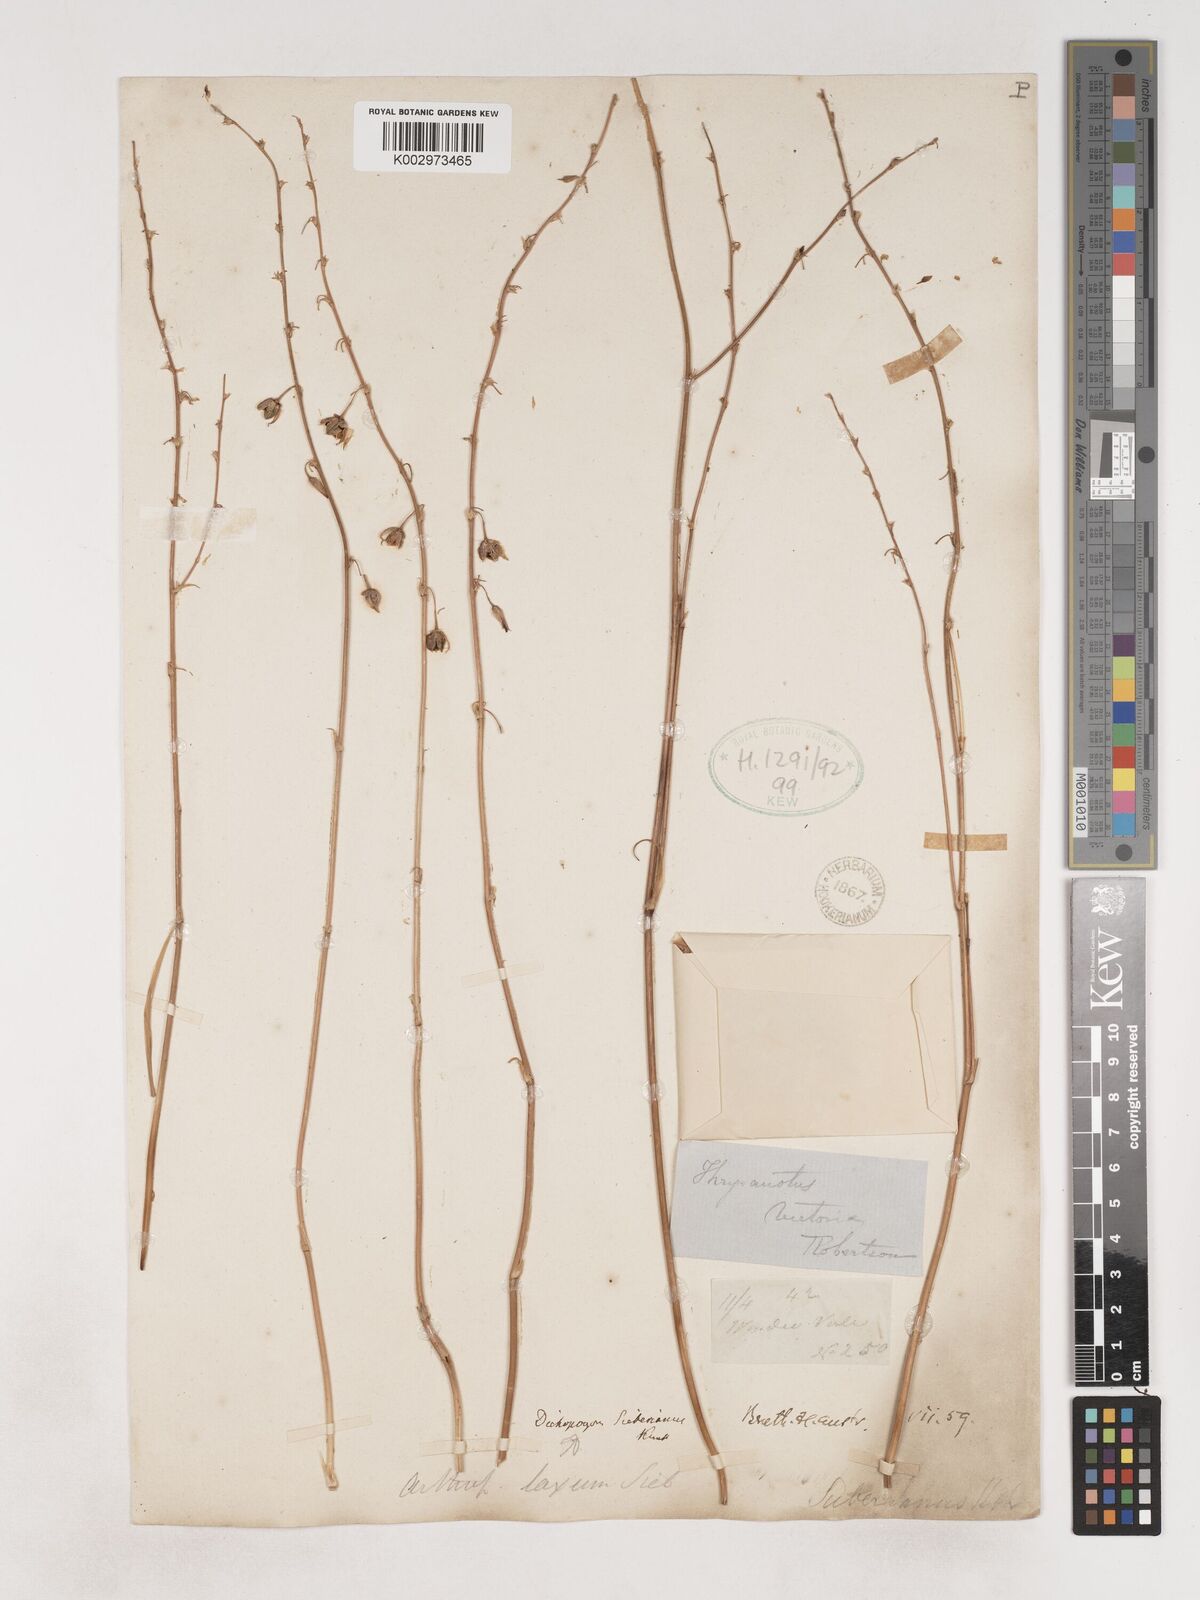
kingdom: Plantae
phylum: Tracheophyta
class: Liliopsida
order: Asparagales
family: Asparagaceae
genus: Arthropodium
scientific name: Arthropodium strictum
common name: Chocolate-lily
